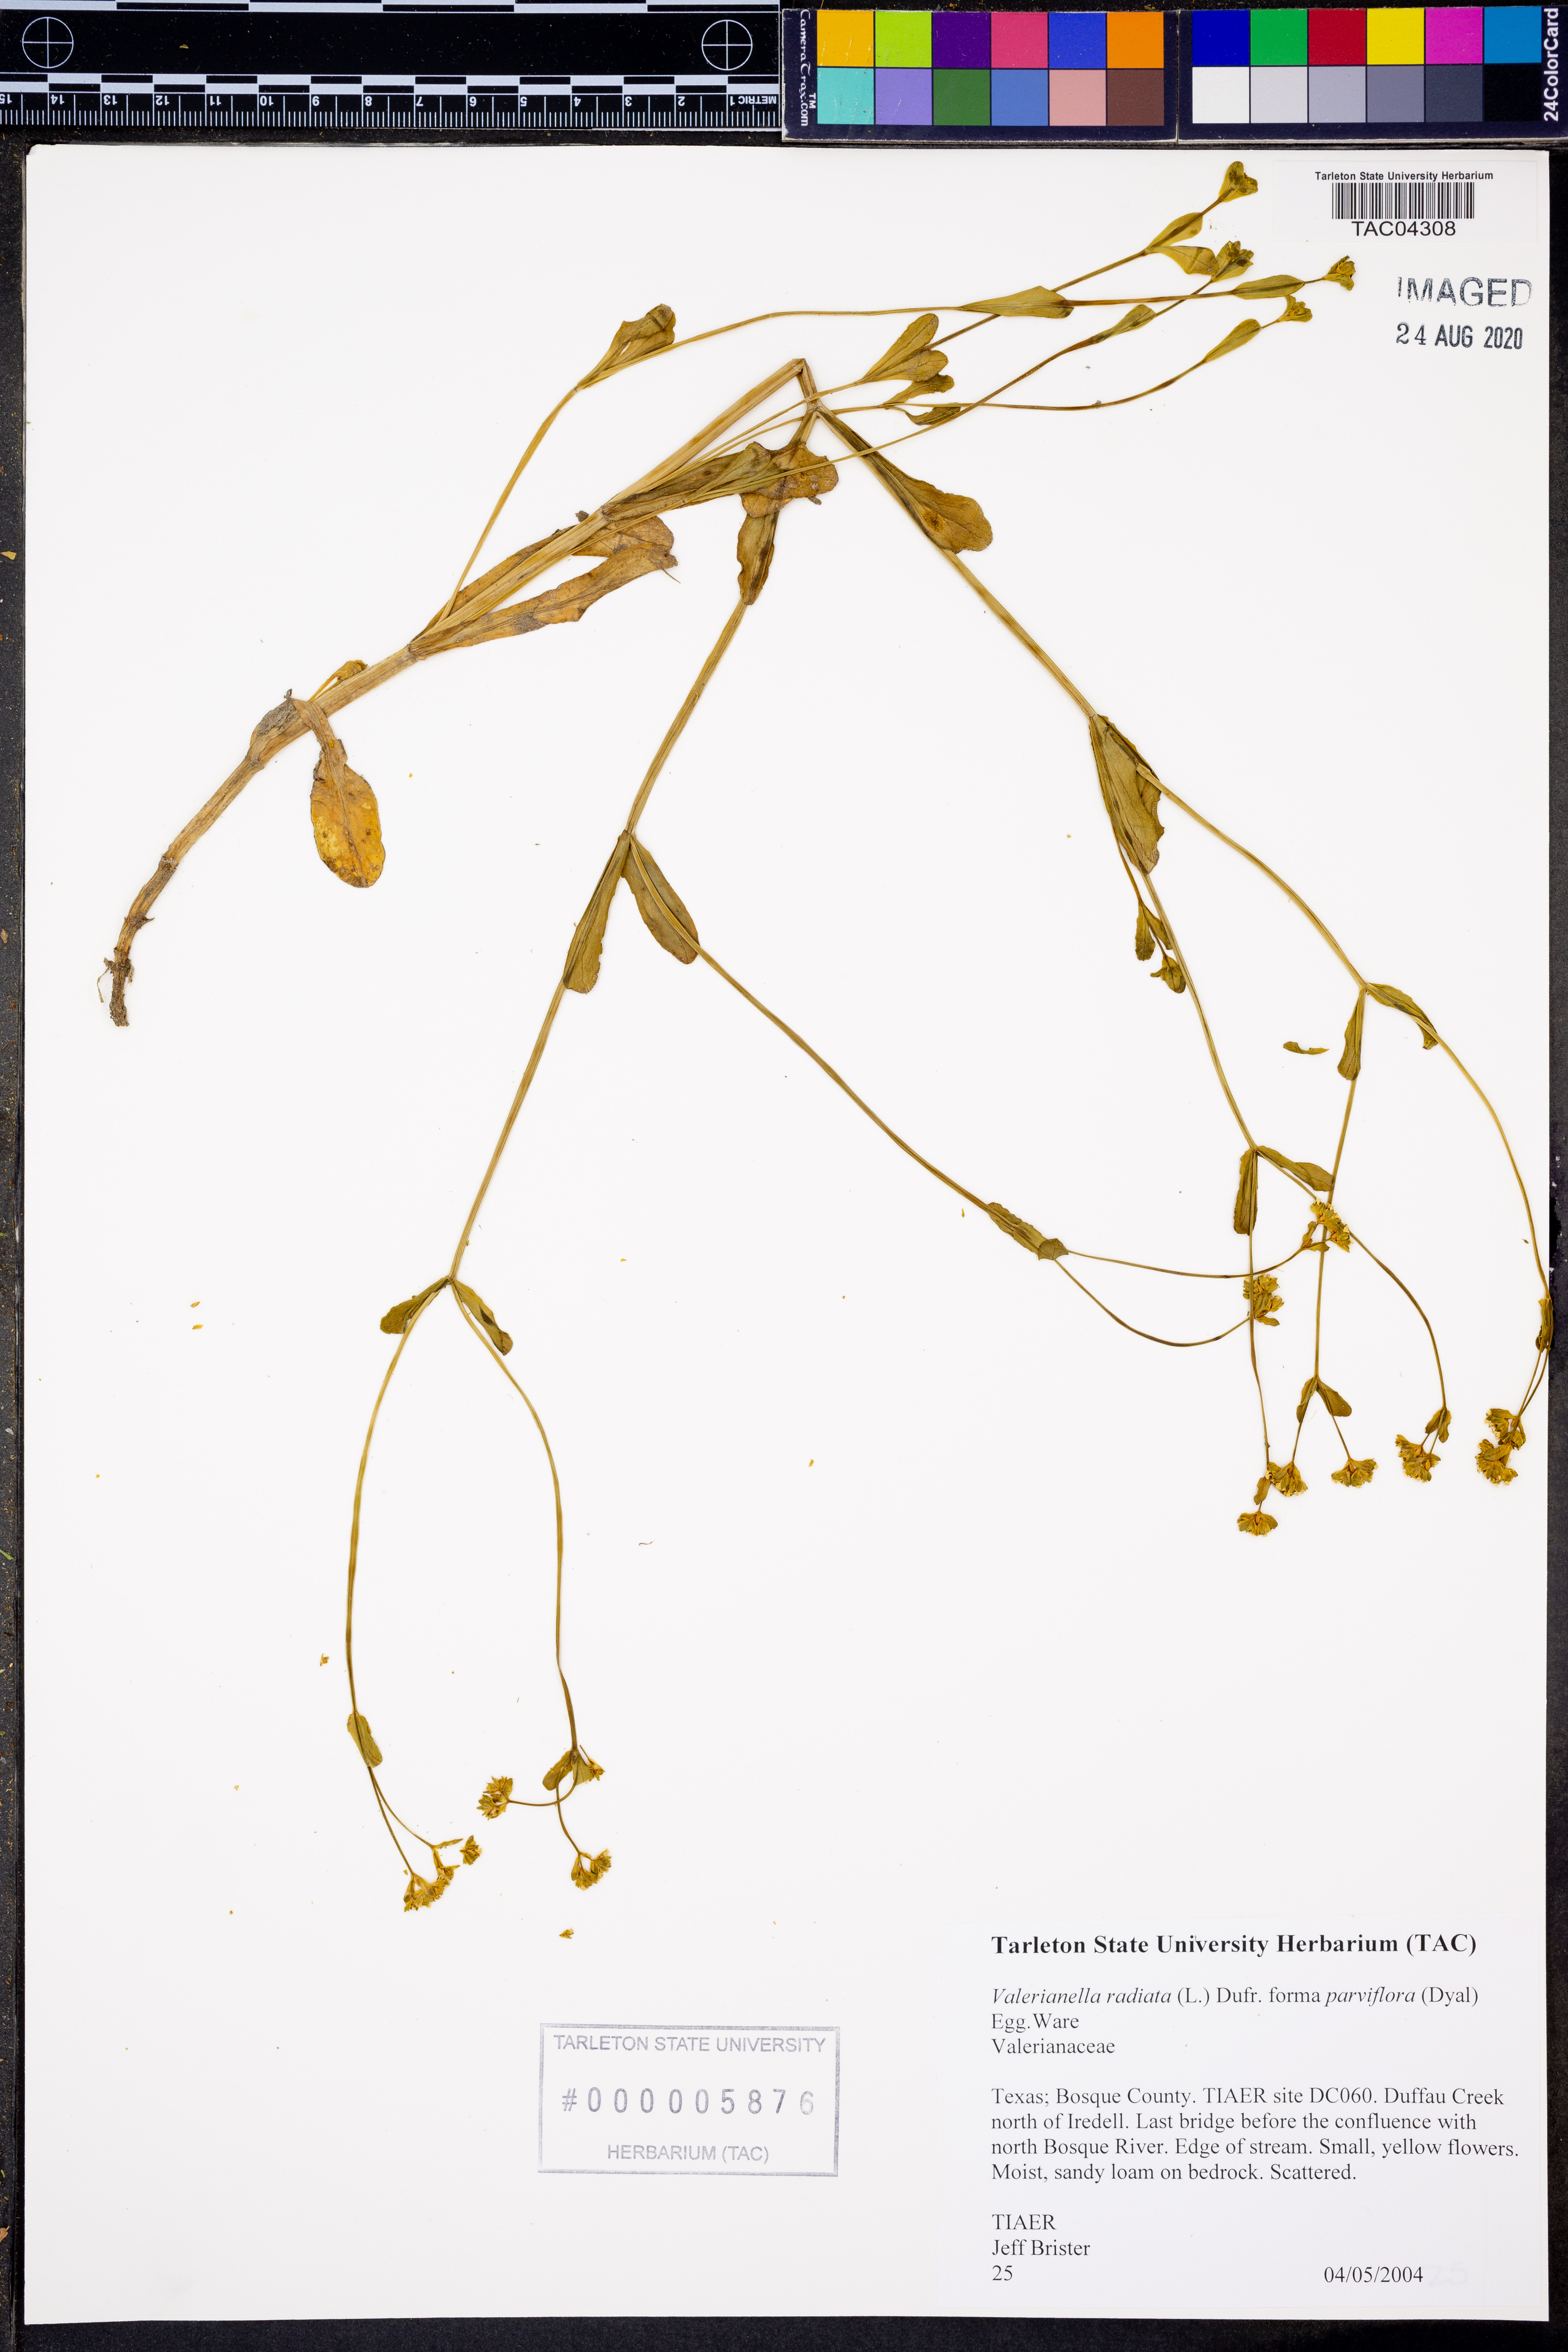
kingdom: Plantae
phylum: Tracheophyta
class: Magnoliopsida
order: Dipsacales
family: Caprifoliaceae
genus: Valerianella
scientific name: Valerianella radiata
